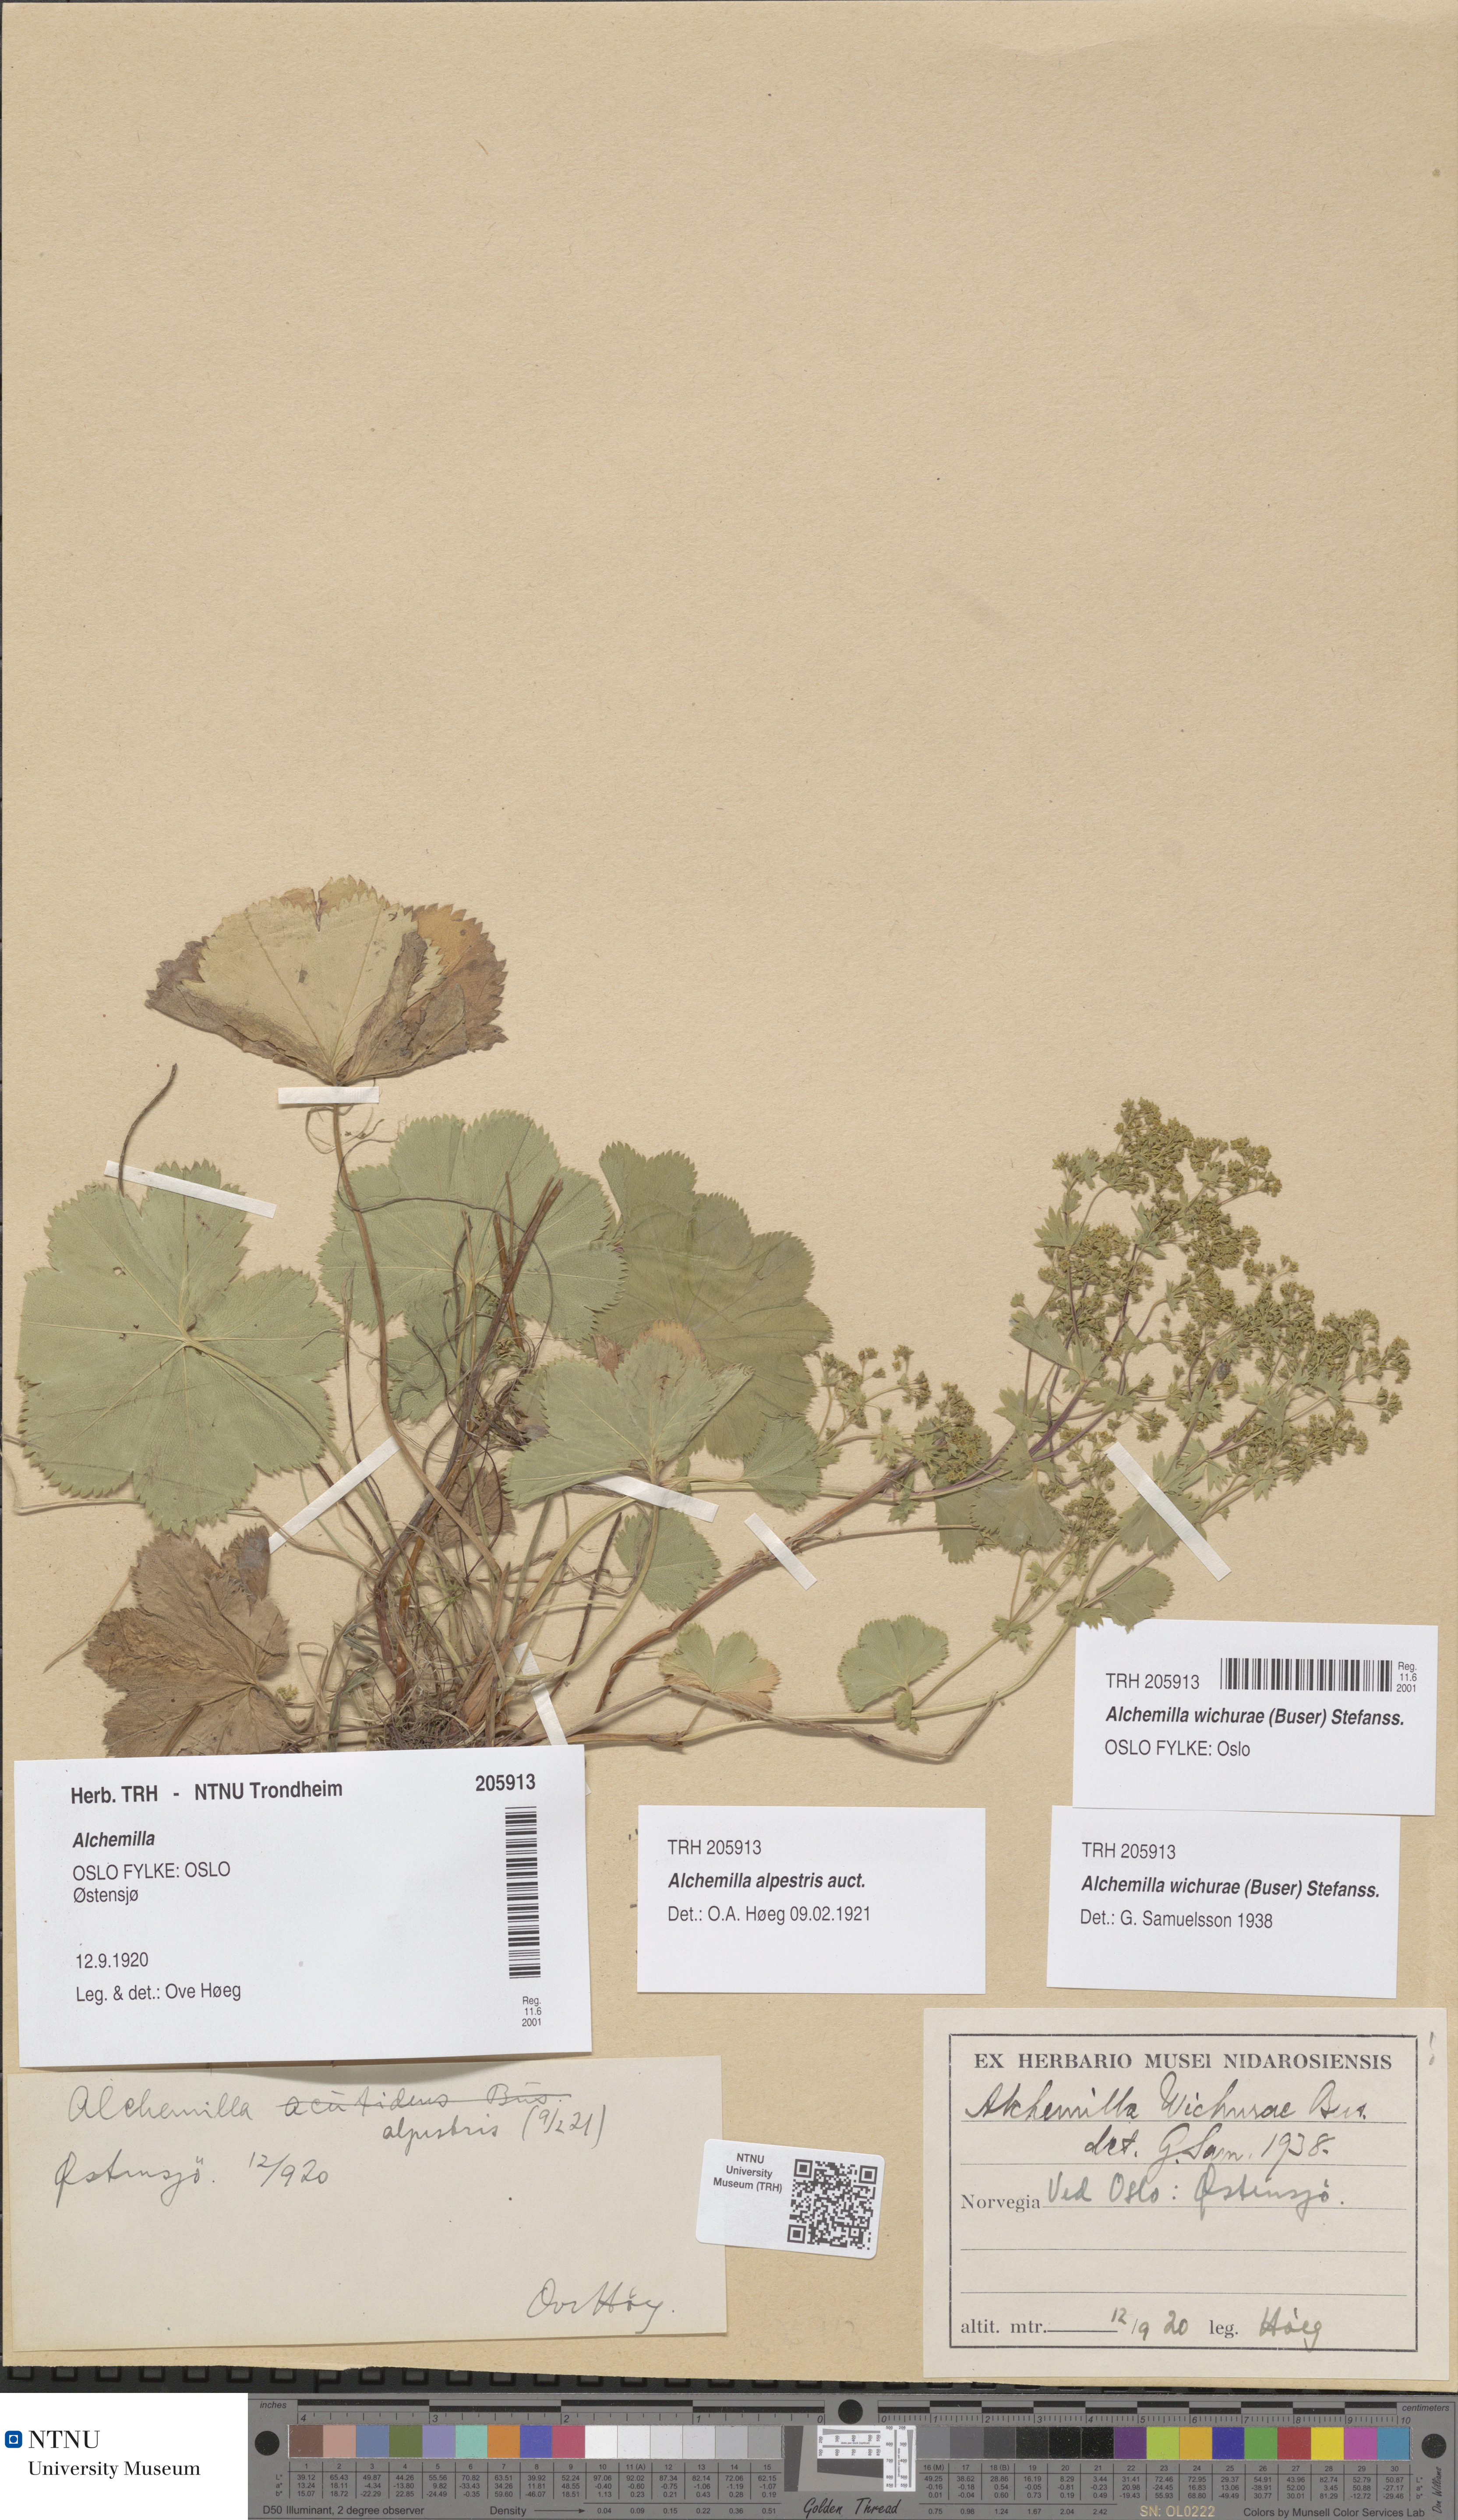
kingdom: Plantae
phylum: Tracheophyta
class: Magnoliopsida
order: Rosales
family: Rosaceae
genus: Alchemilla
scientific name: Alchemilla wichurae
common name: Rock lady's mantle
